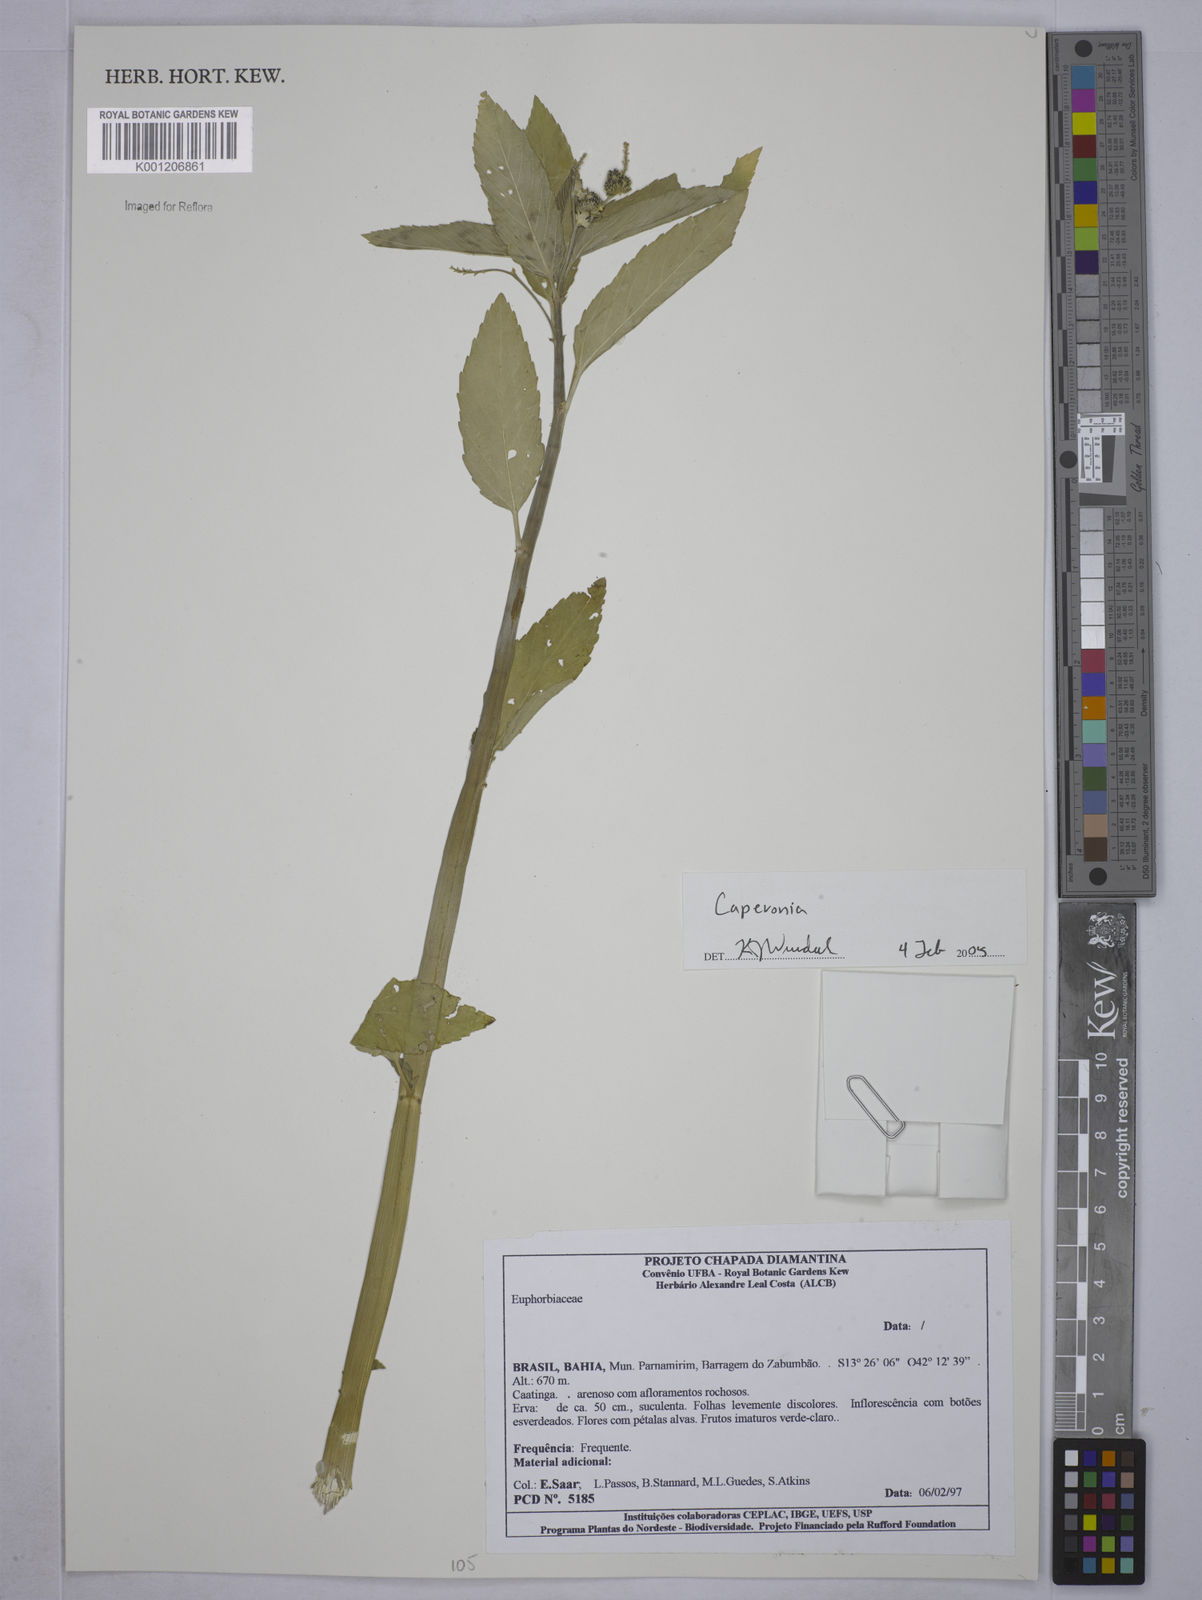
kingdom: Plantae
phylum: Tracheophyta
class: Magnoliopsida
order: Malpighiales
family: Euphorbiaceae
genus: Caperonia
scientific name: Caperonia
